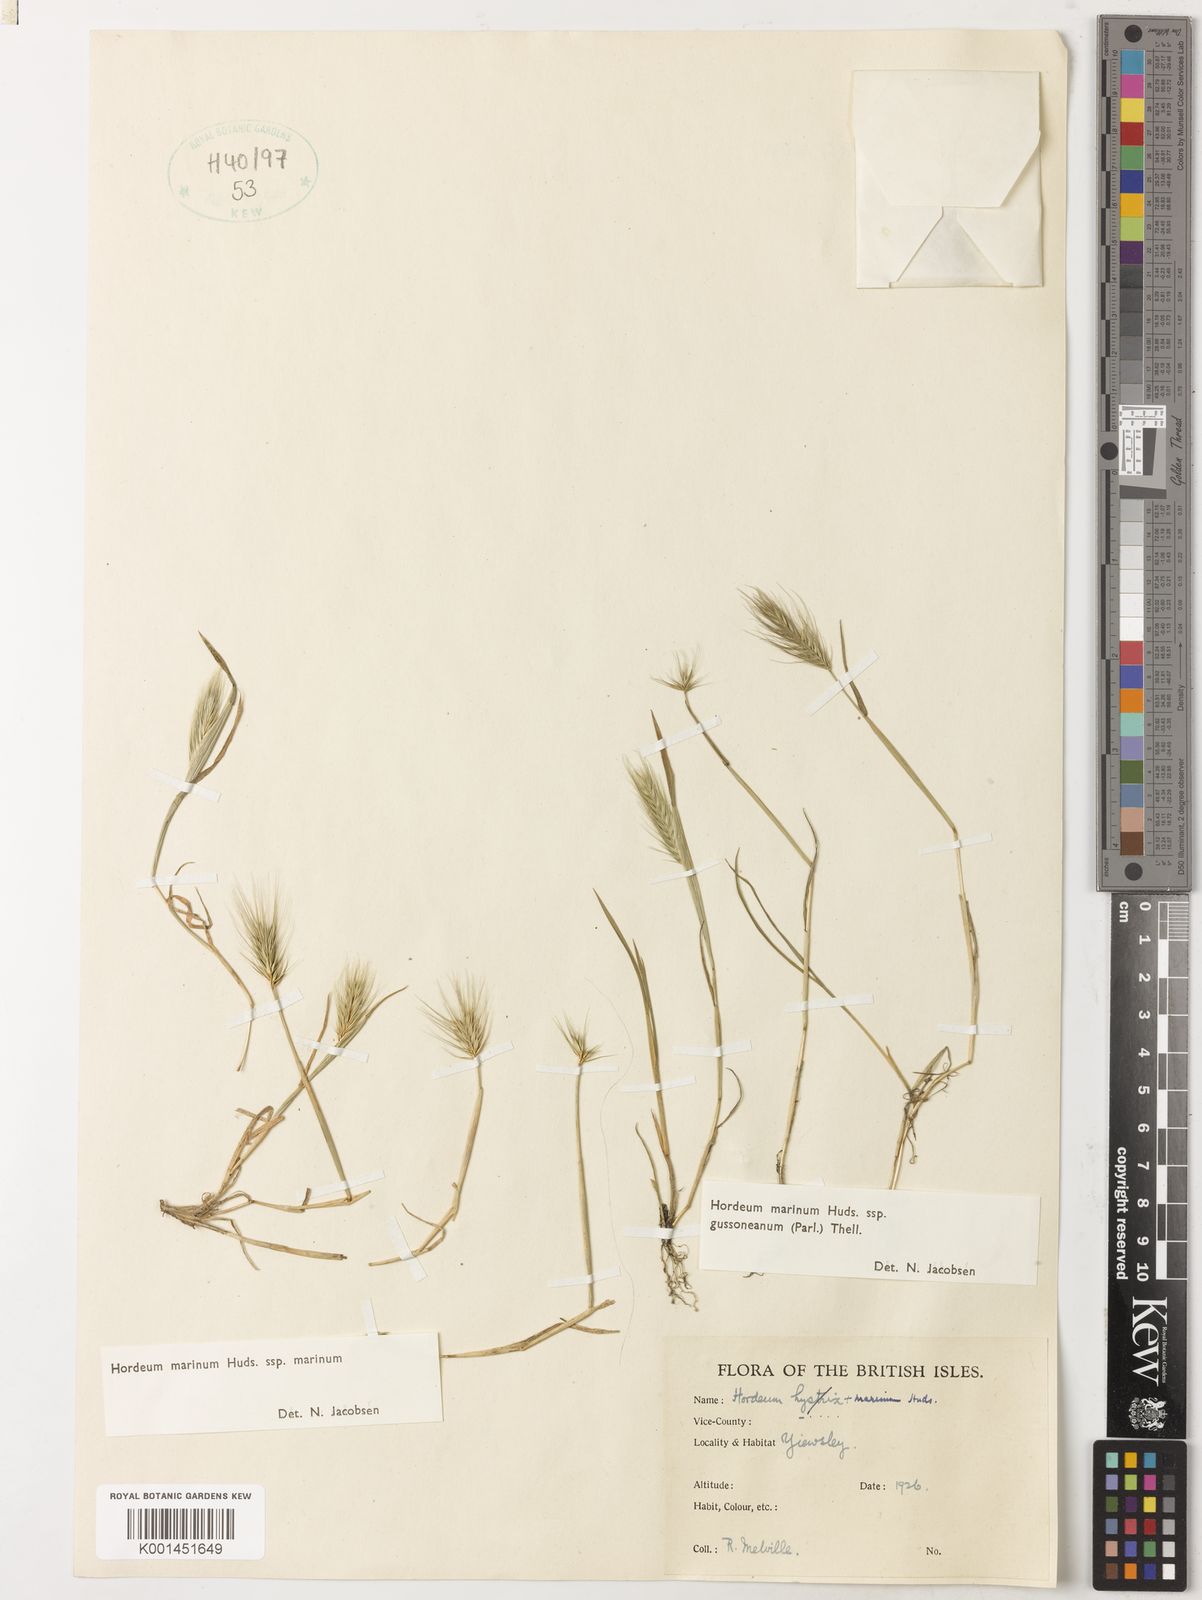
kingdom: Plantae
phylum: Tracheophyta
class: Liliopsida
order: Poales
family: Poaceae
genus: Hordeum
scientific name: Hordeum marinum
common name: Sea barley
